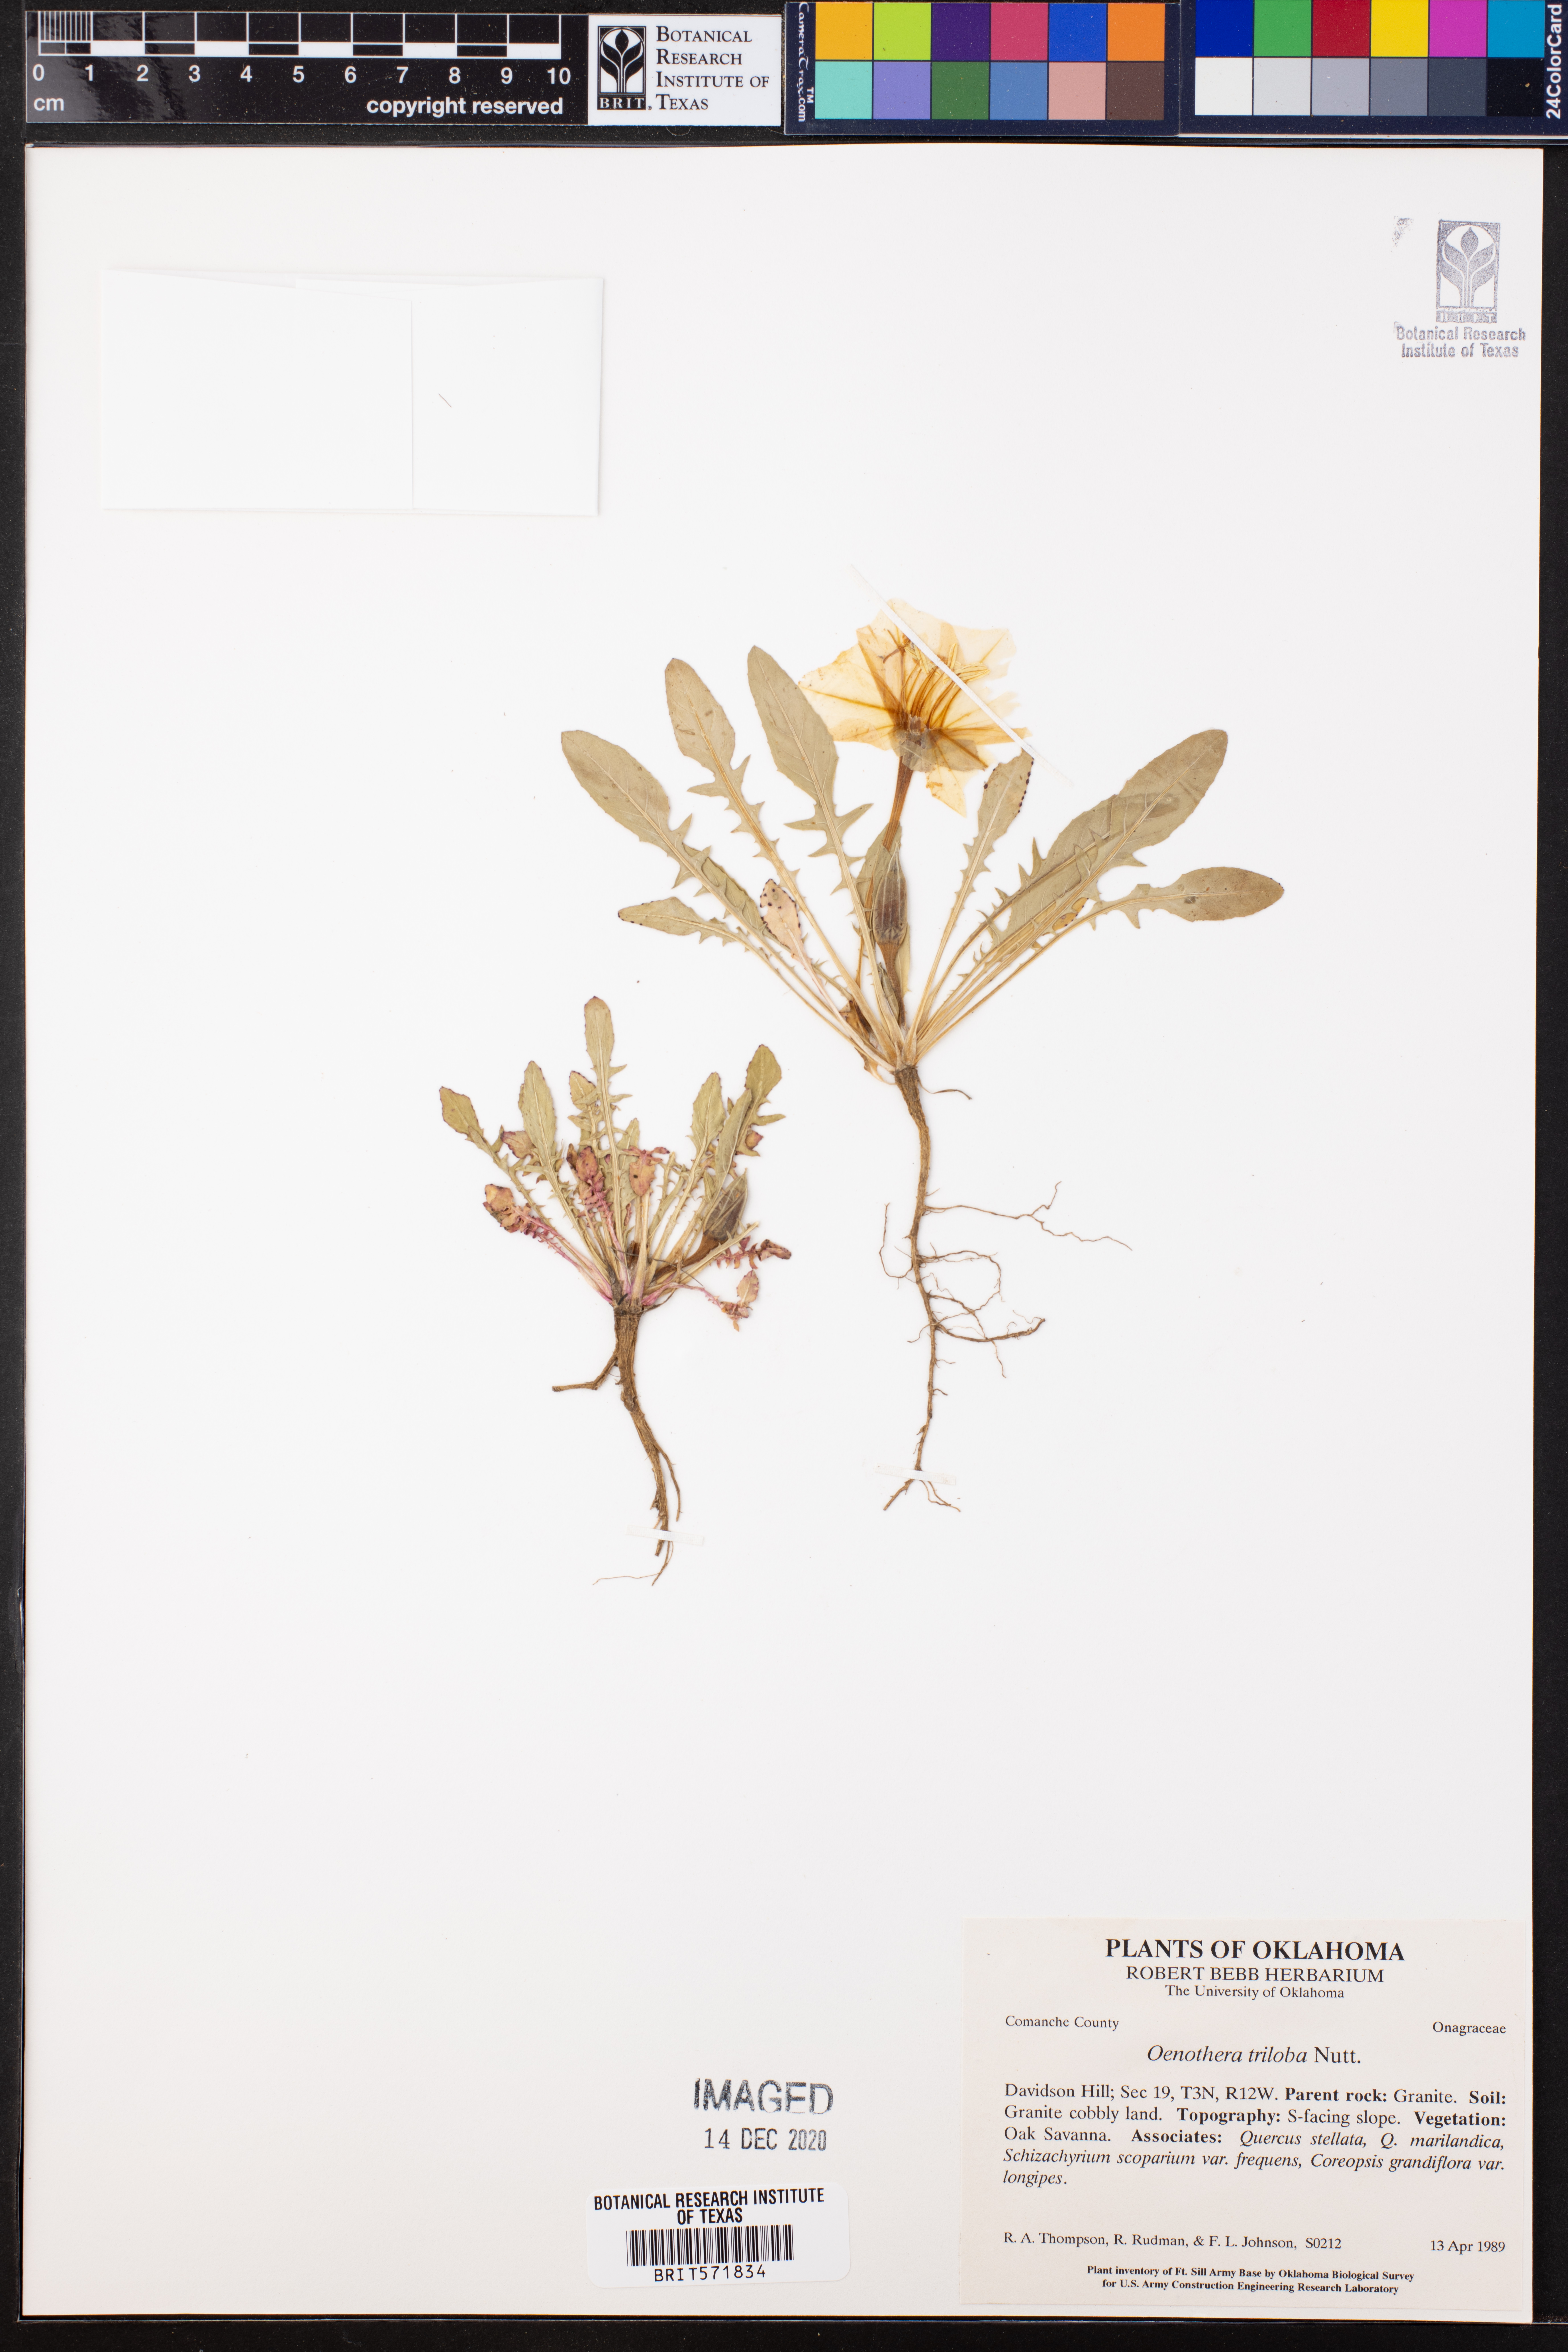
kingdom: Plantae
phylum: Tracheophyta
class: Magnoliopsida
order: Myrtales
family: Onagraceae
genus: Oenothera
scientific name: Oenothera triloba
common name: Sessile evening-primrose
